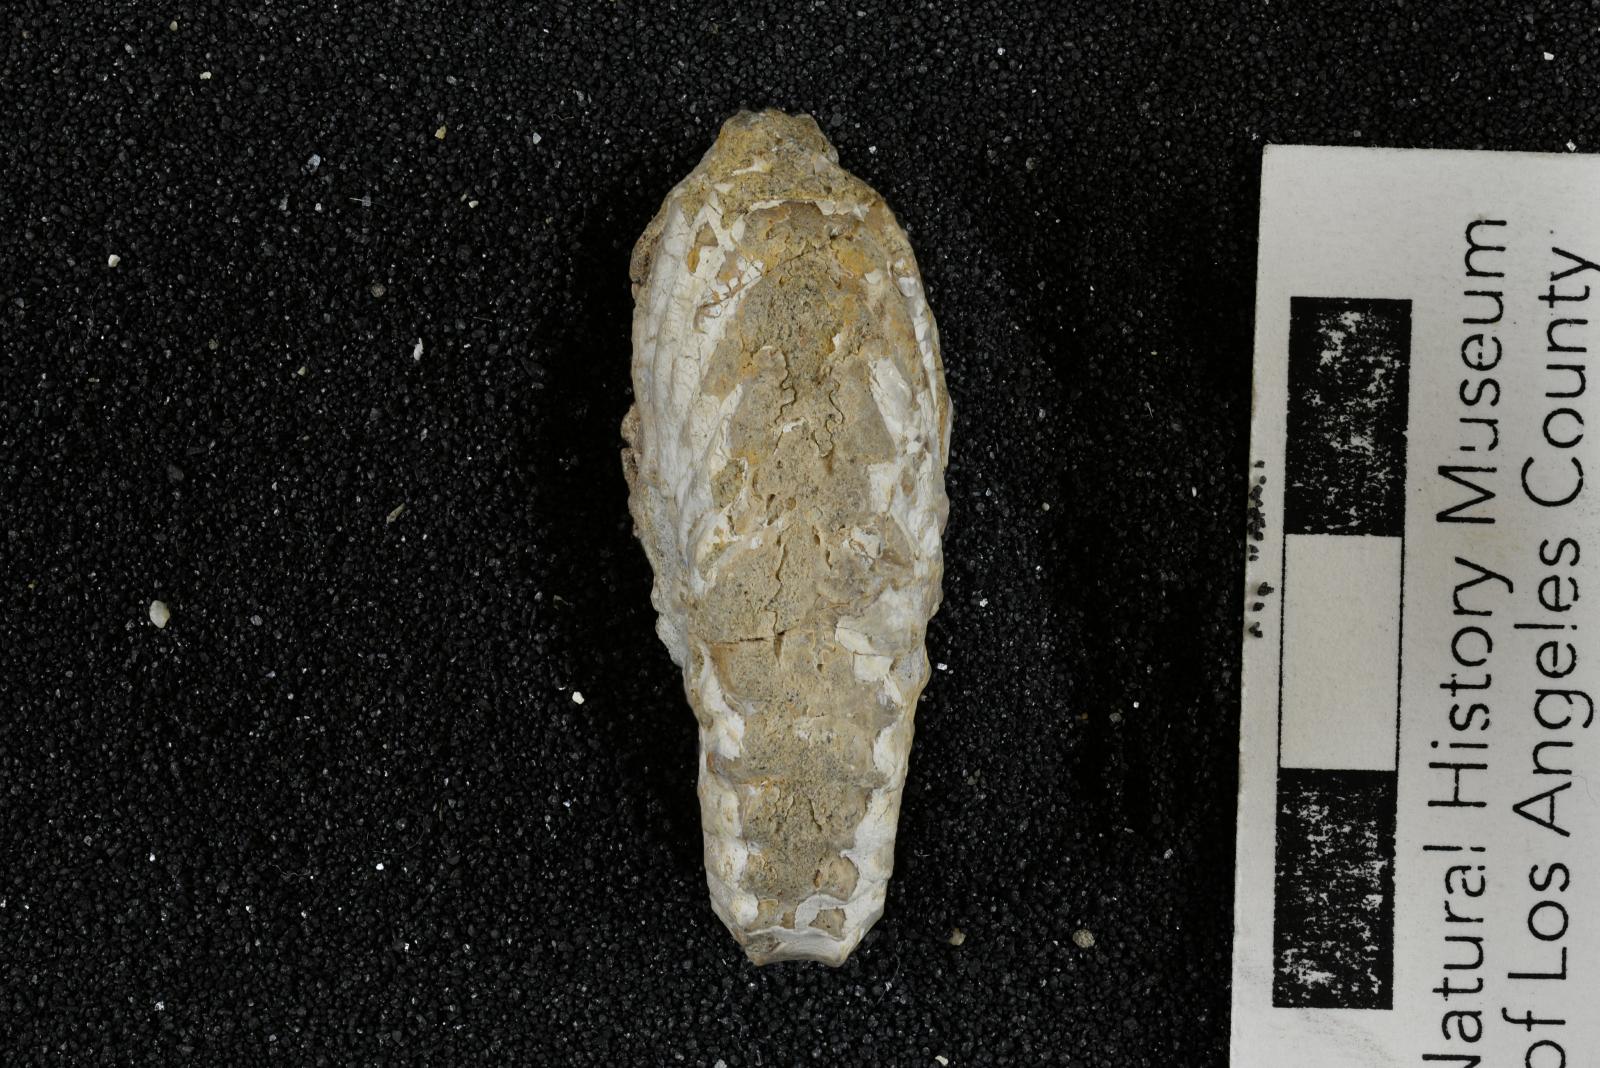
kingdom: Animalia
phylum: Mollusca
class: Cephalopoda
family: Placenticeratidae
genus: Metaplacenticeras
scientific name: Metaplacenticeras bowersi
